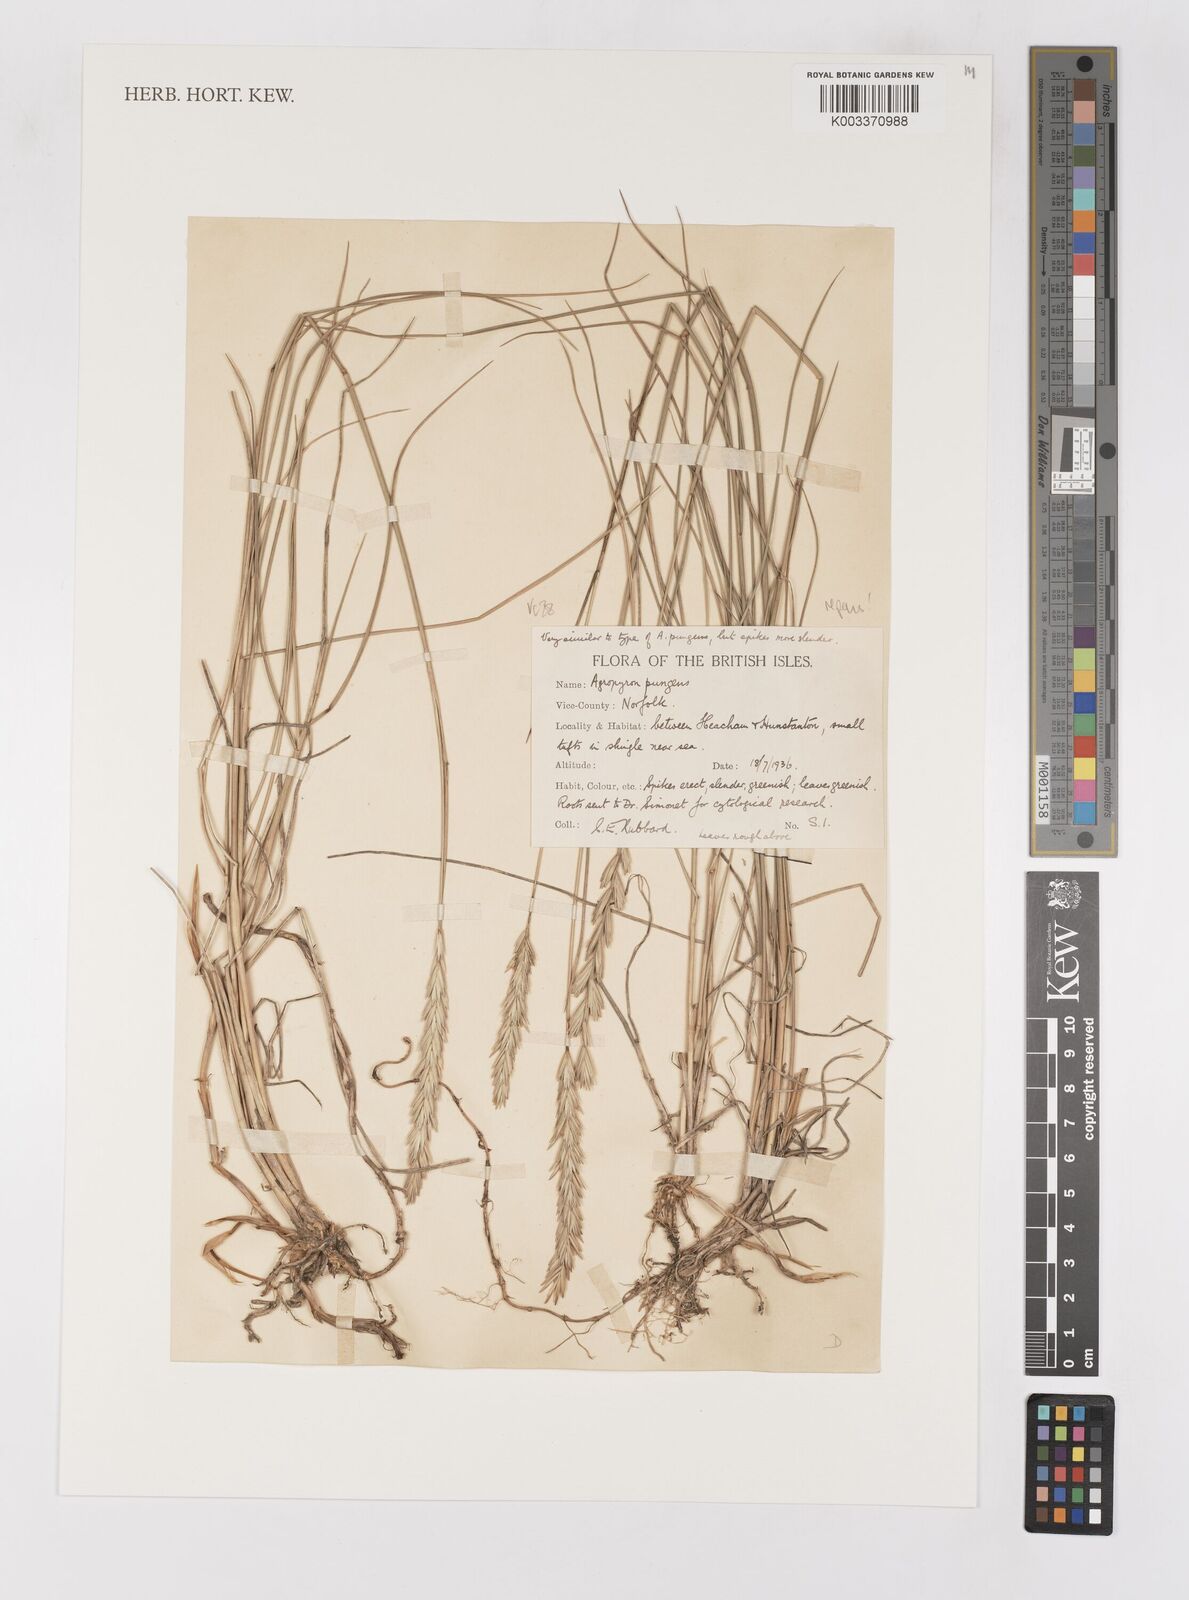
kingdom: Plantae
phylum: Tracheophyta
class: Liliopsida
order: Poales
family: Poaceae
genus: Elymus
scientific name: Elymus repens
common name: Quackgrass
